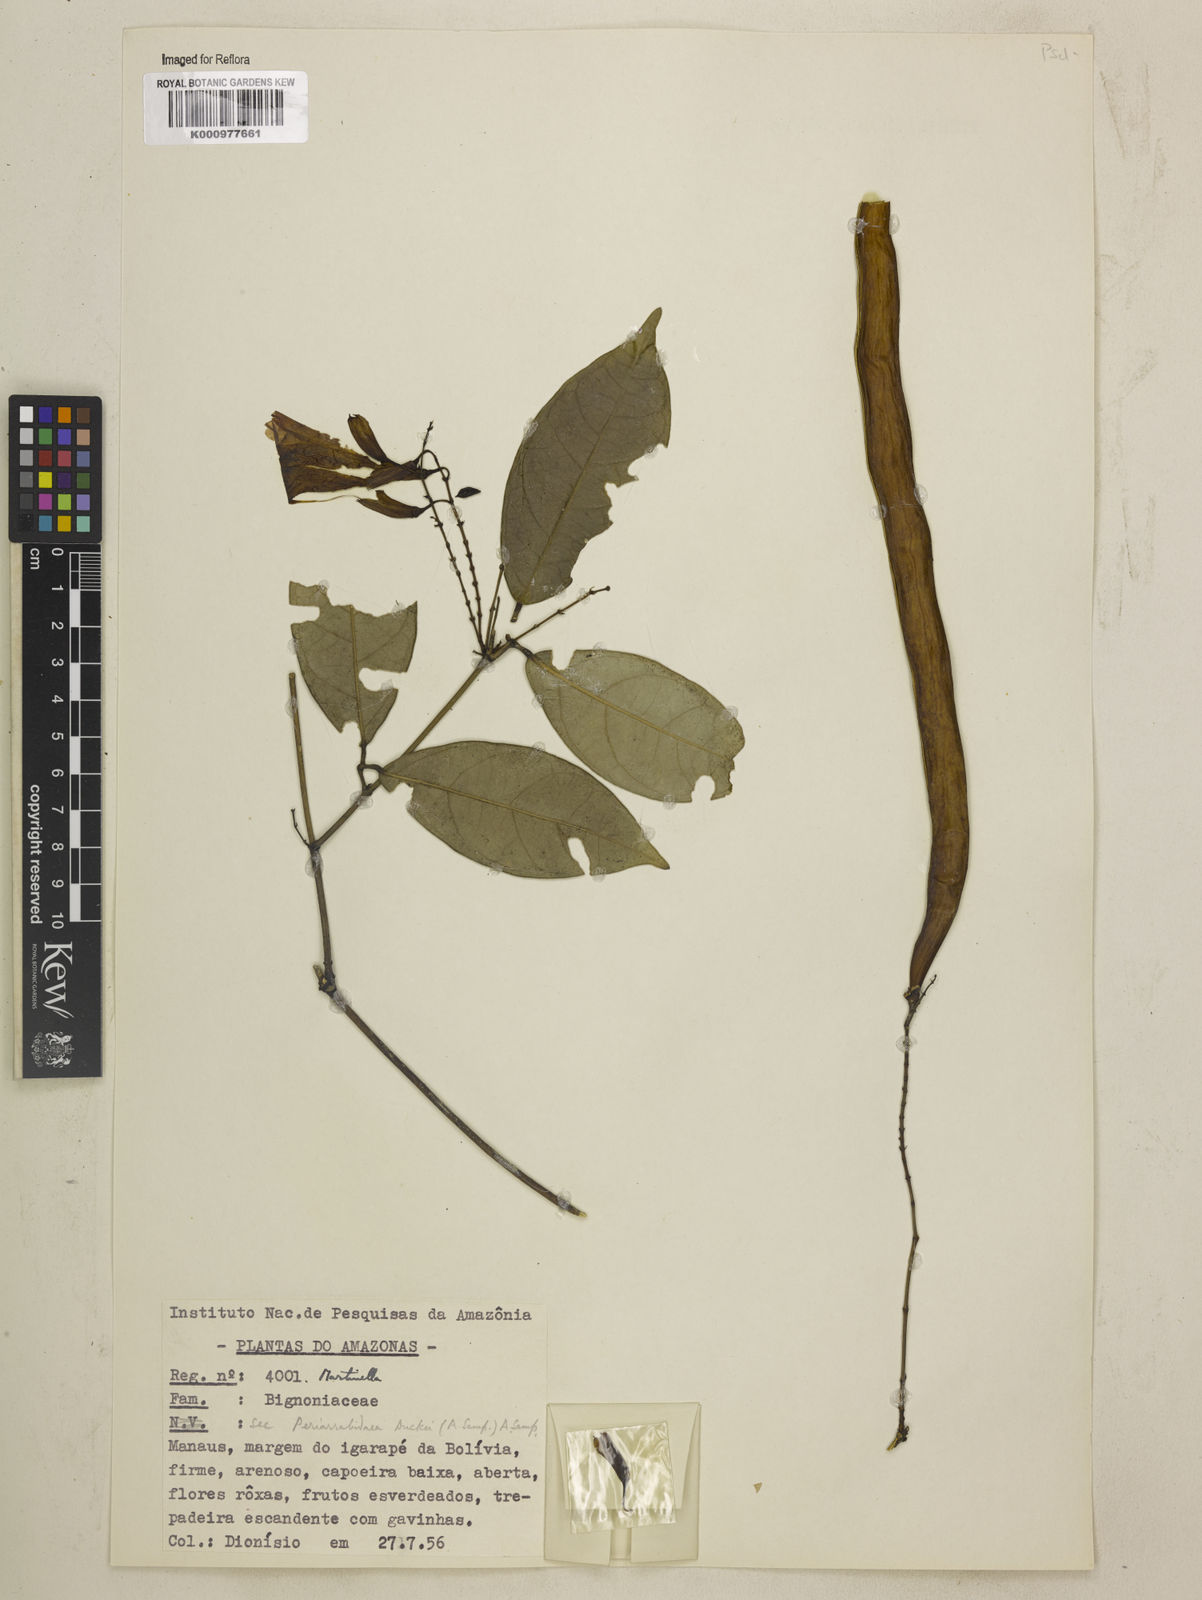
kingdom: Animalia
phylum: Arthropoda
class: Insecta
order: Coleoptera
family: Chrysomelidae
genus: Martinella
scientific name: Martinella obovata
